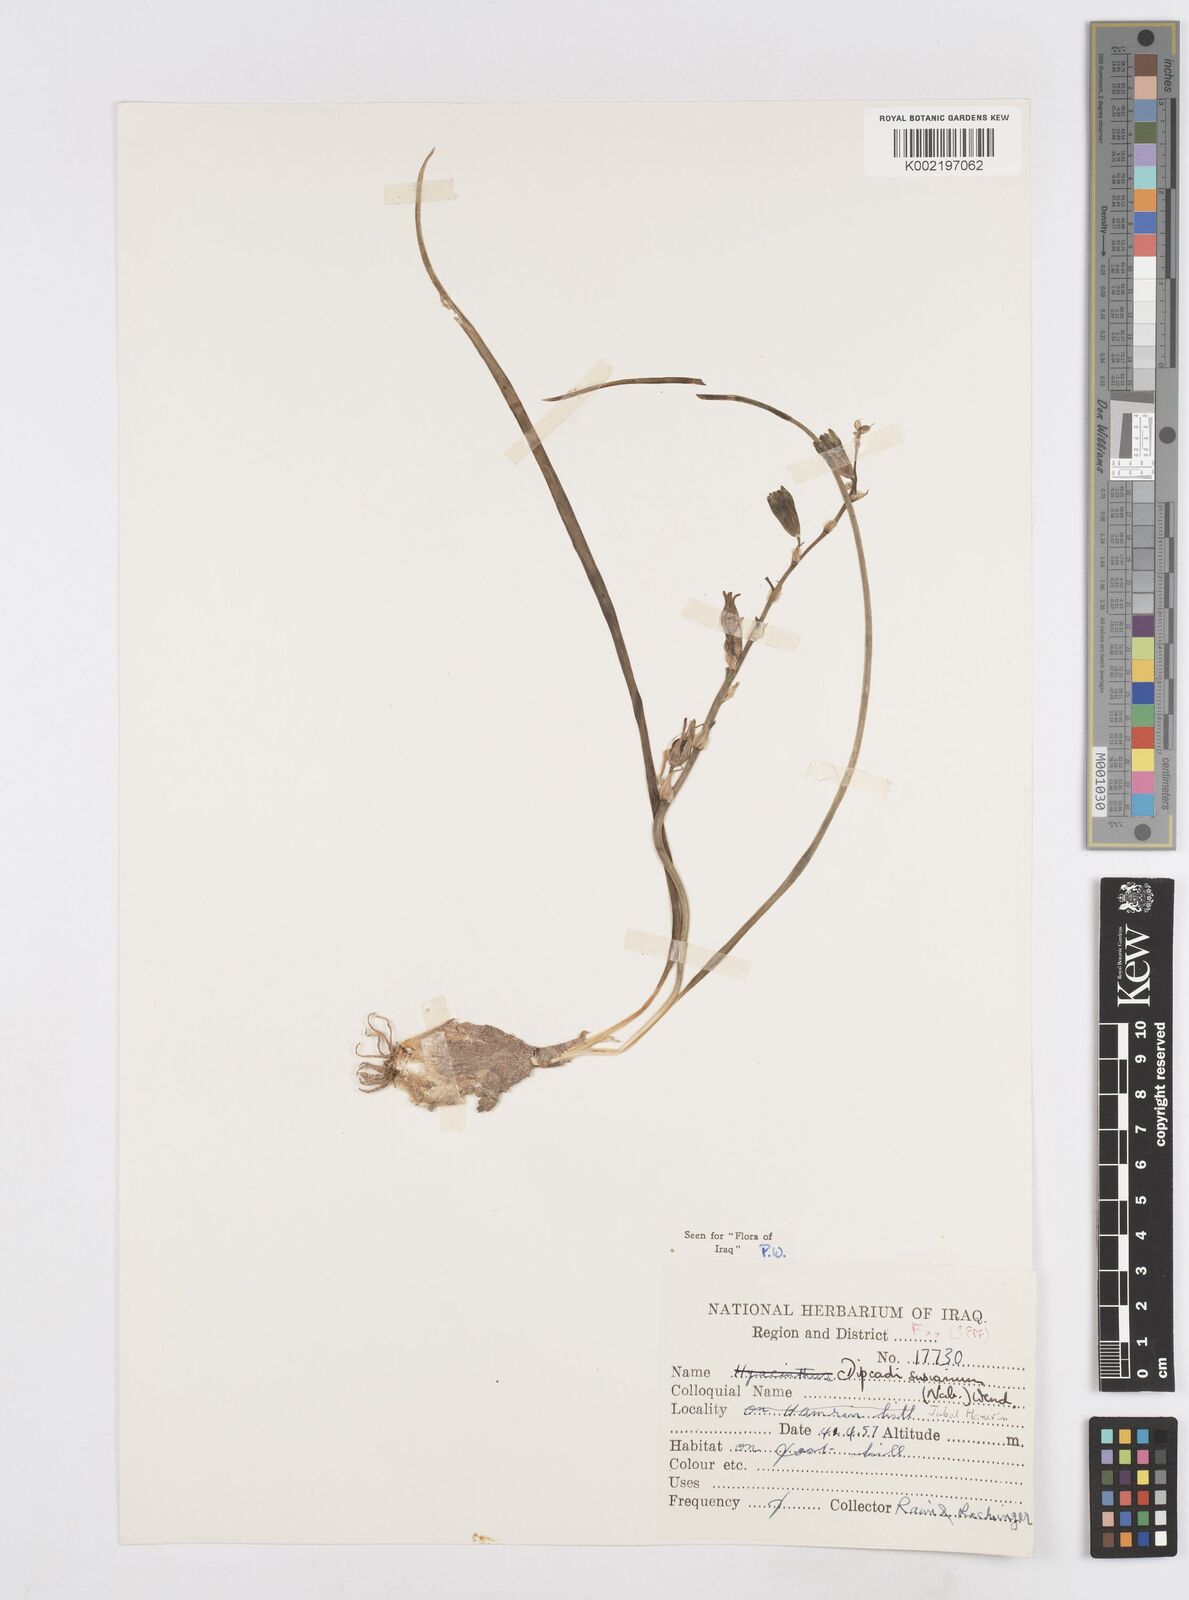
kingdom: Plantae
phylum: Tracheophyta
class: Liliopsida
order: Asparagales
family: Asparagaceae
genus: Dipcadi
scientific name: Dipcadi susianum
